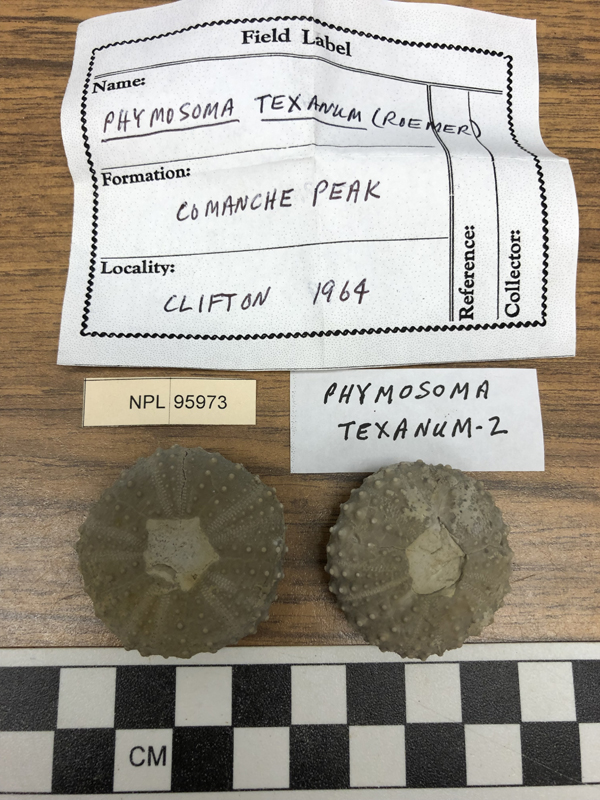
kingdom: Animalia
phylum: Echinodermata
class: Echinoidea
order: Phymosomatoida
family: Phymosomatidae
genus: Phymosoma
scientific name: Phymosoma
